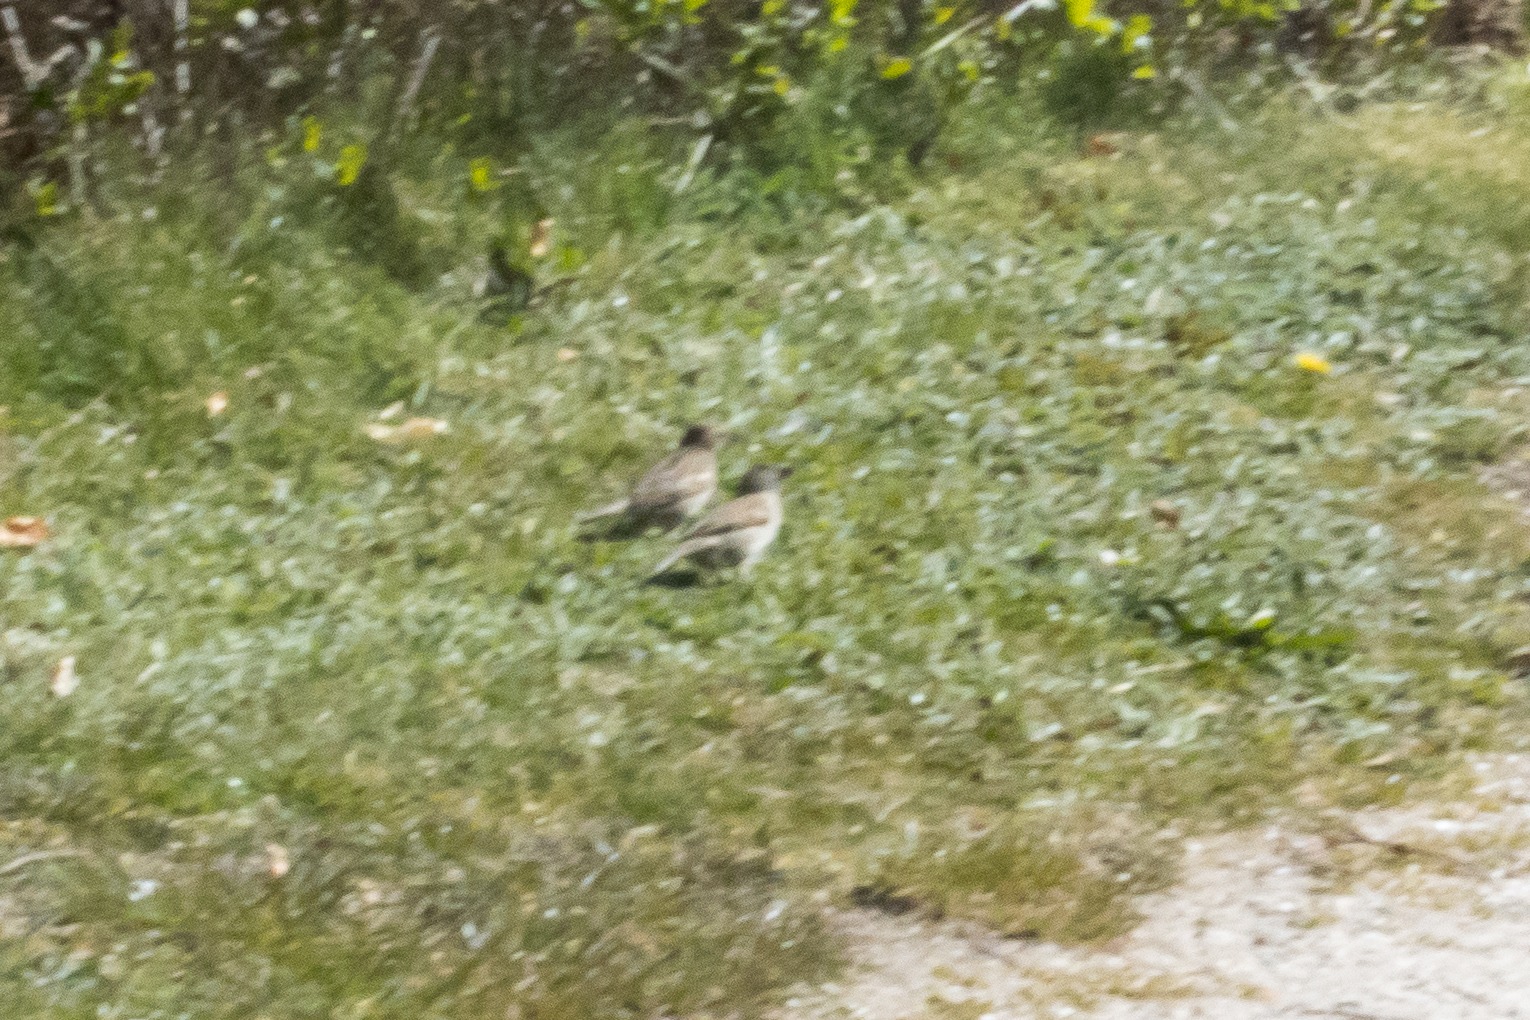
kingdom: Animalia
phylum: Chordata
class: Aves
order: Passeriformes
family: Passeridae
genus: Passer
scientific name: Passer domesticus
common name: Gråspurv
